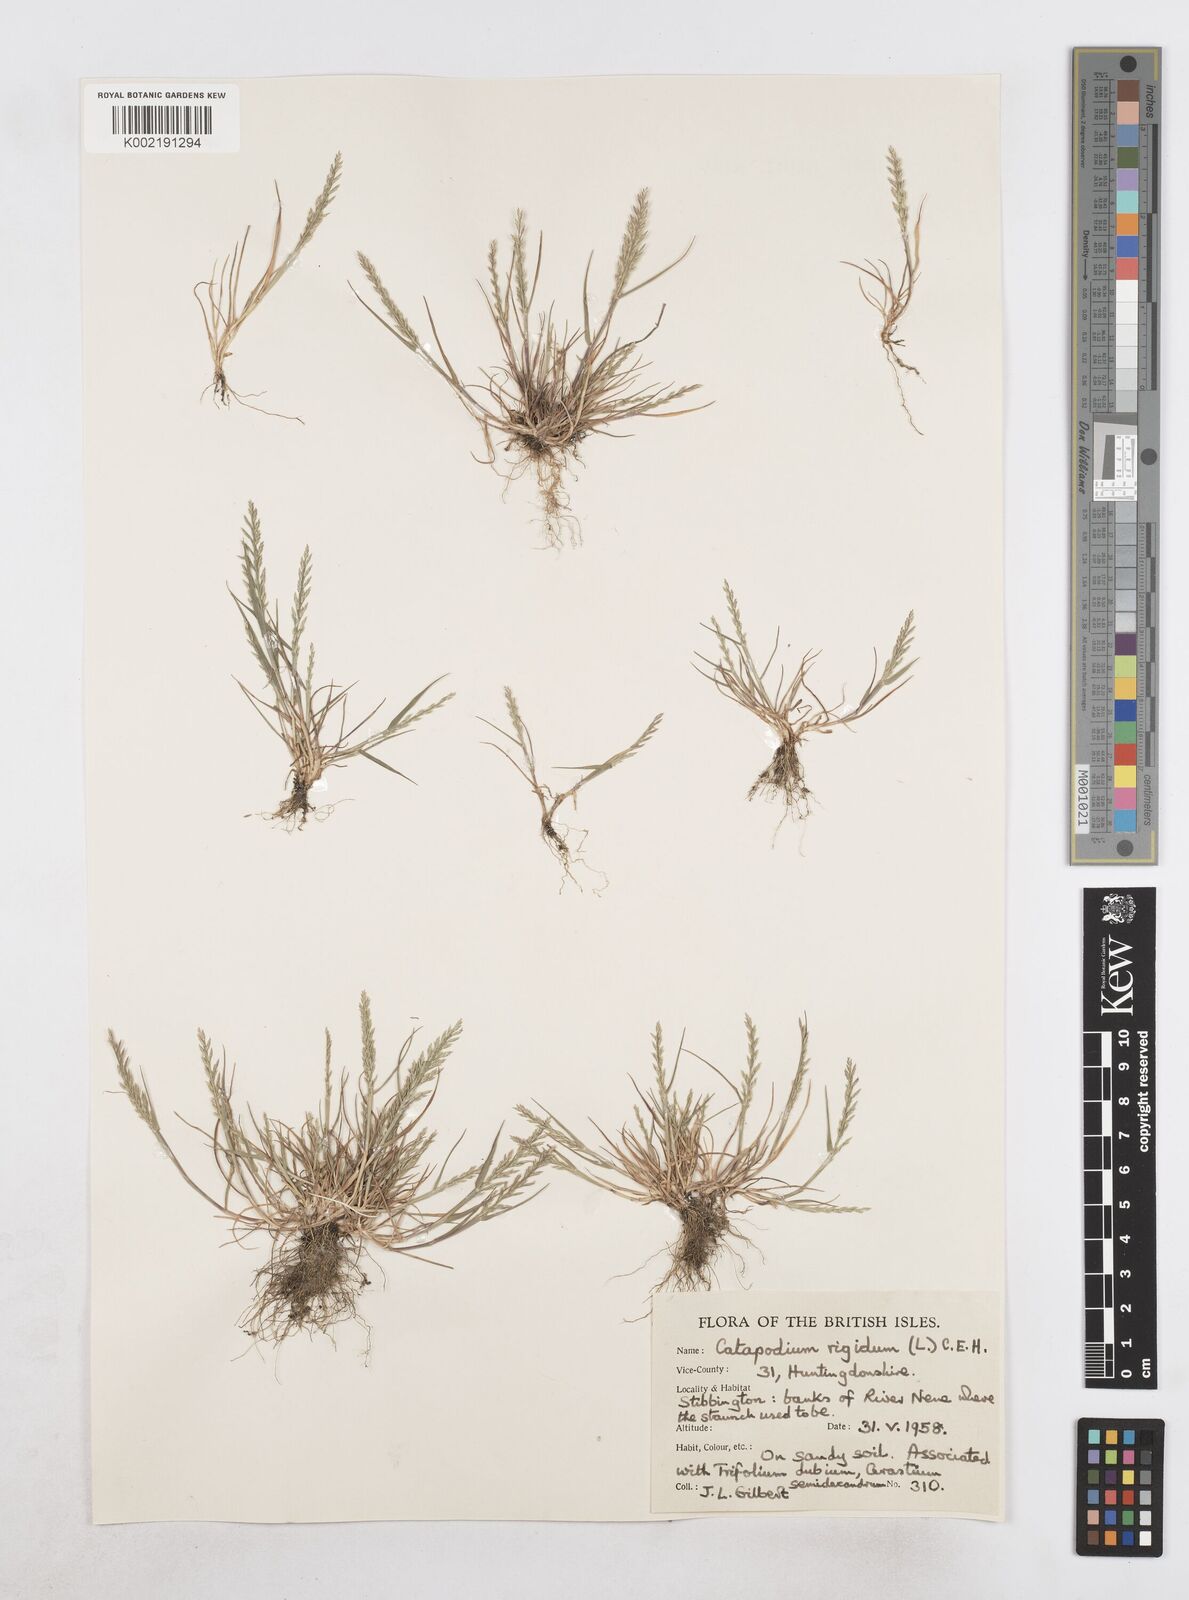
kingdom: Plantae
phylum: Tracheophyta
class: Liliopsida
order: Poales
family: Poaceae
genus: Catapodium
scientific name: Catapodium rigidum
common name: Fern-grass
